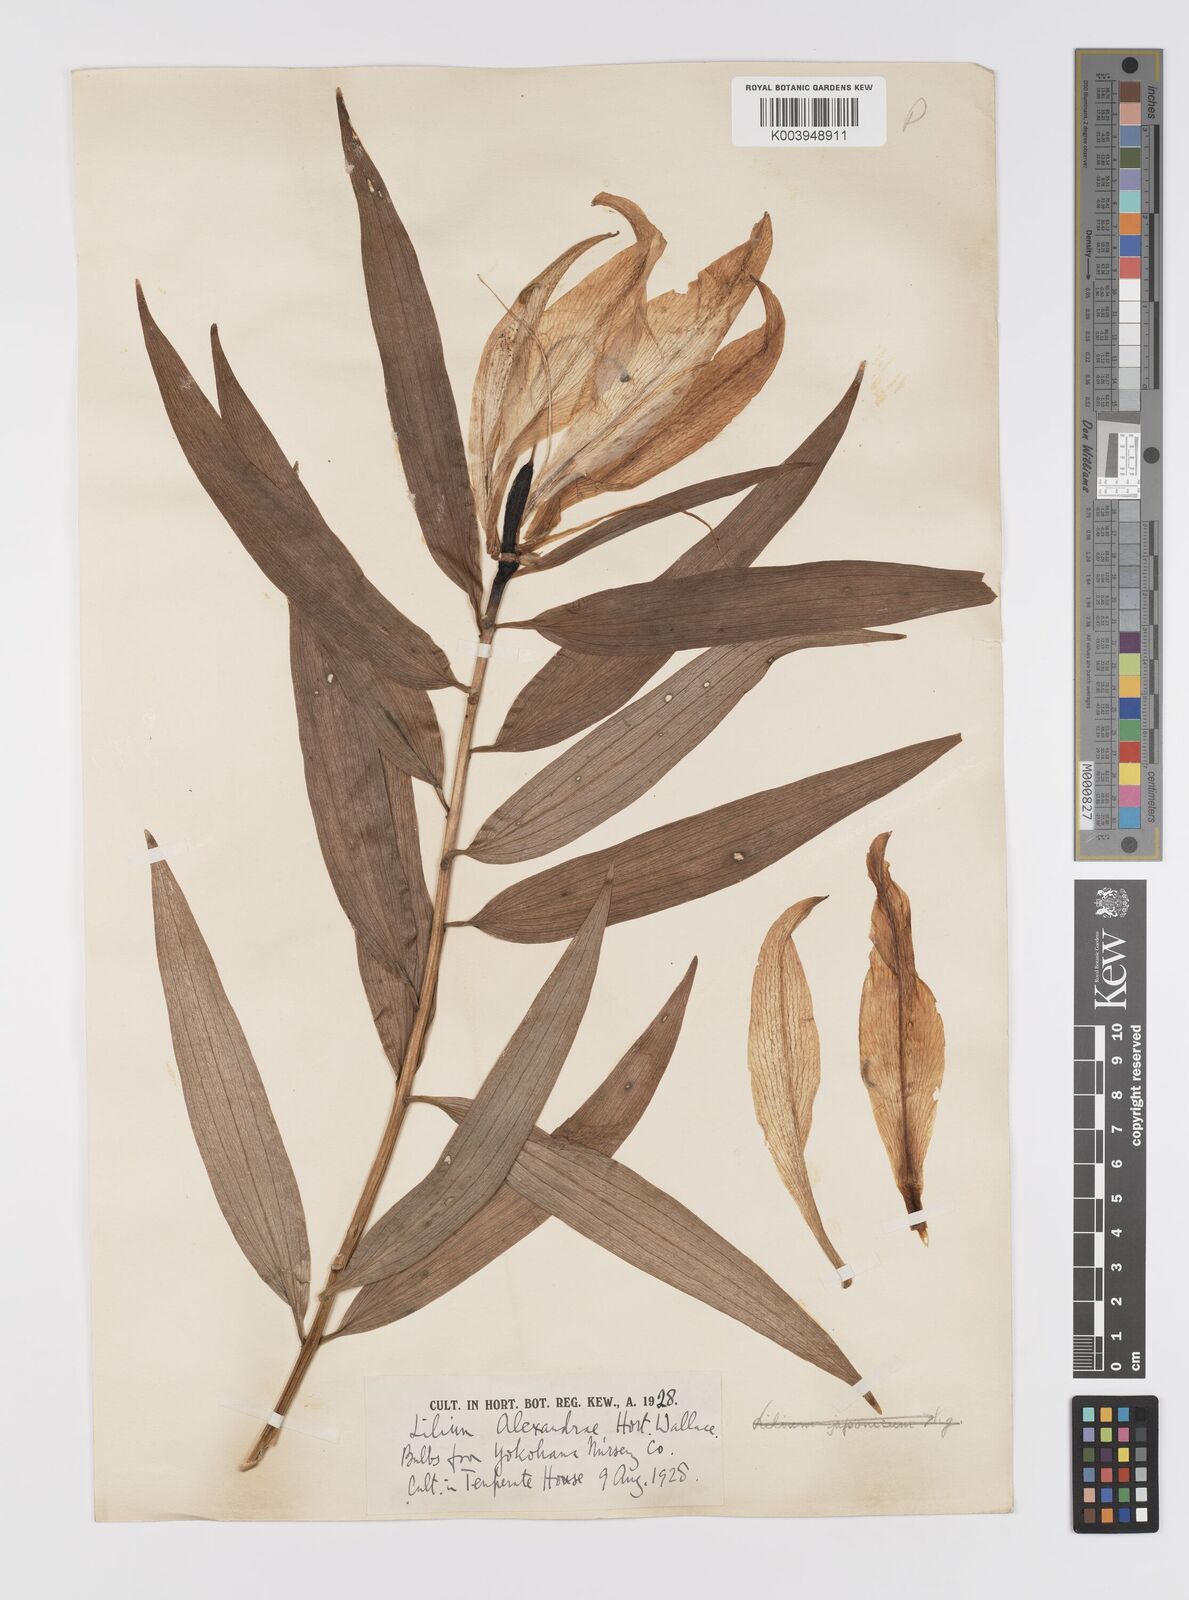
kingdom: Plantae
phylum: Tracheophyta
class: Liliopsida
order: Liliales
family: Liliaceae
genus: Lilium
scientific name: Lilium nobilissimum
